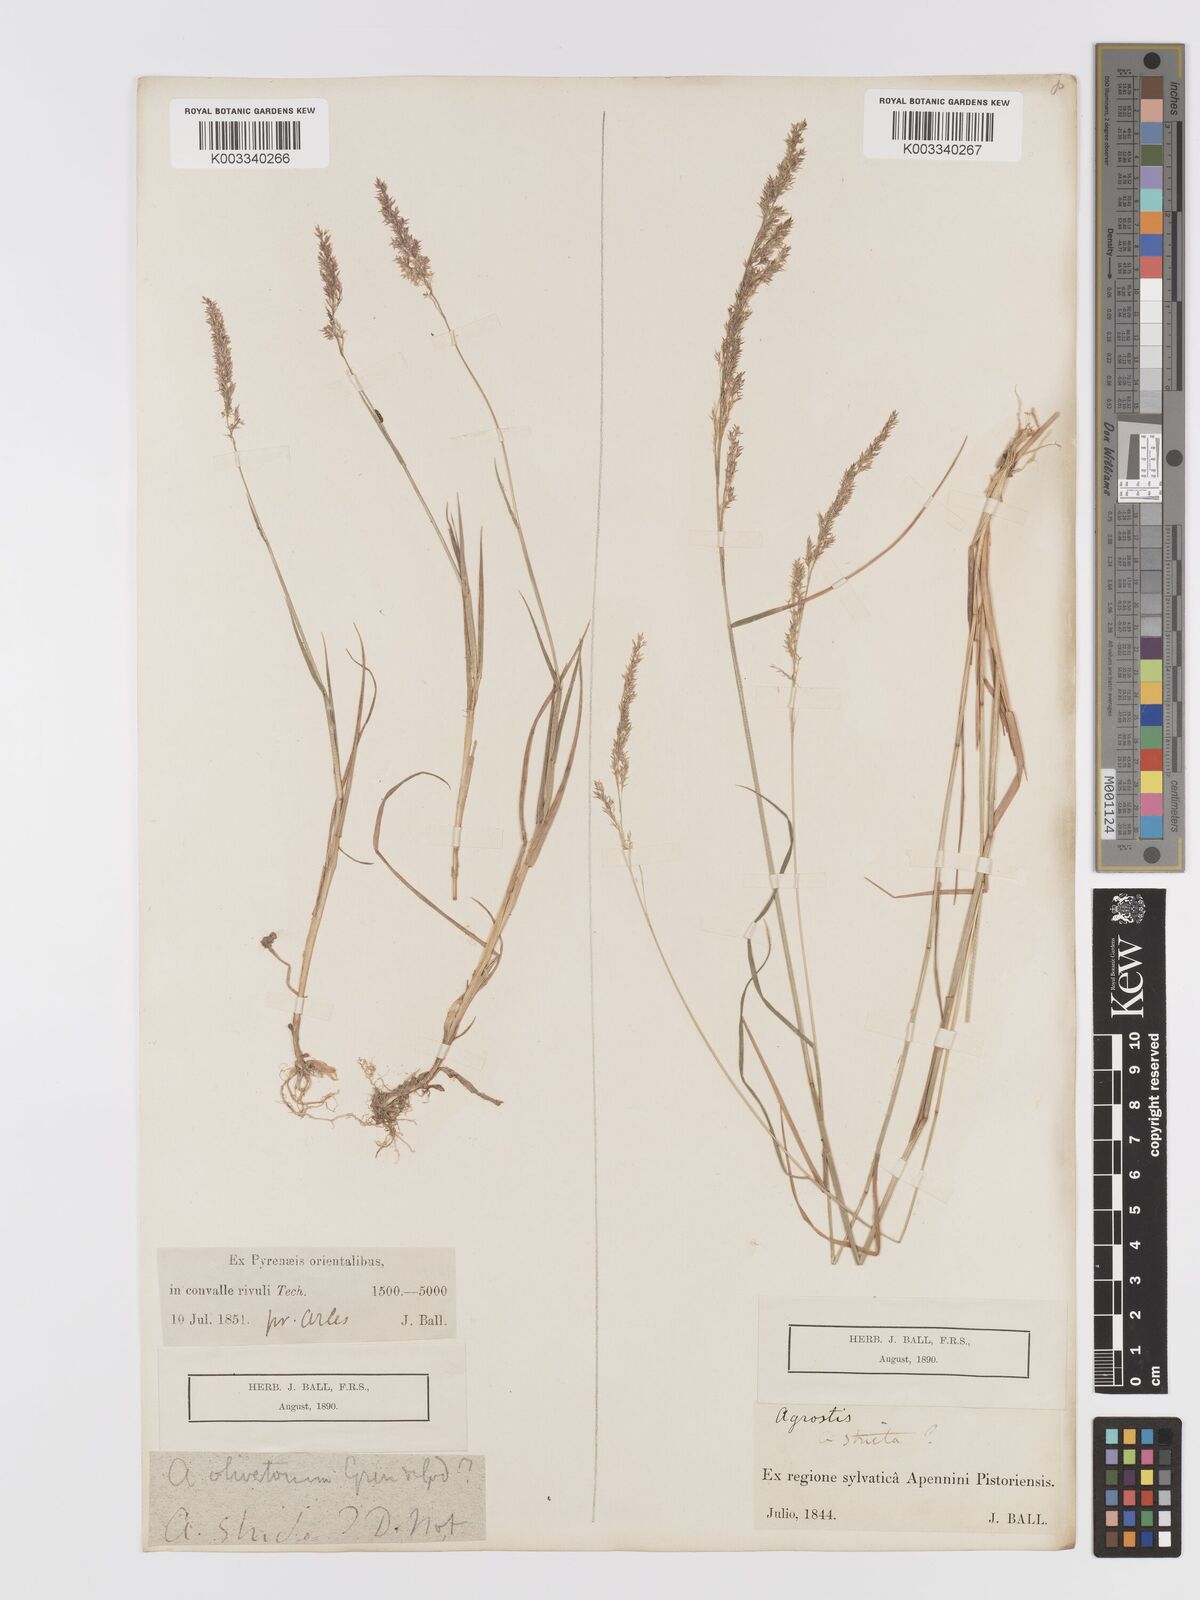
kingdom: Plantae
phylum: Tracheophyta
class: Liliopsida
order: Poales
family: Poaceae
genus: Agrostis
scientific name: Agrostis pourretii
